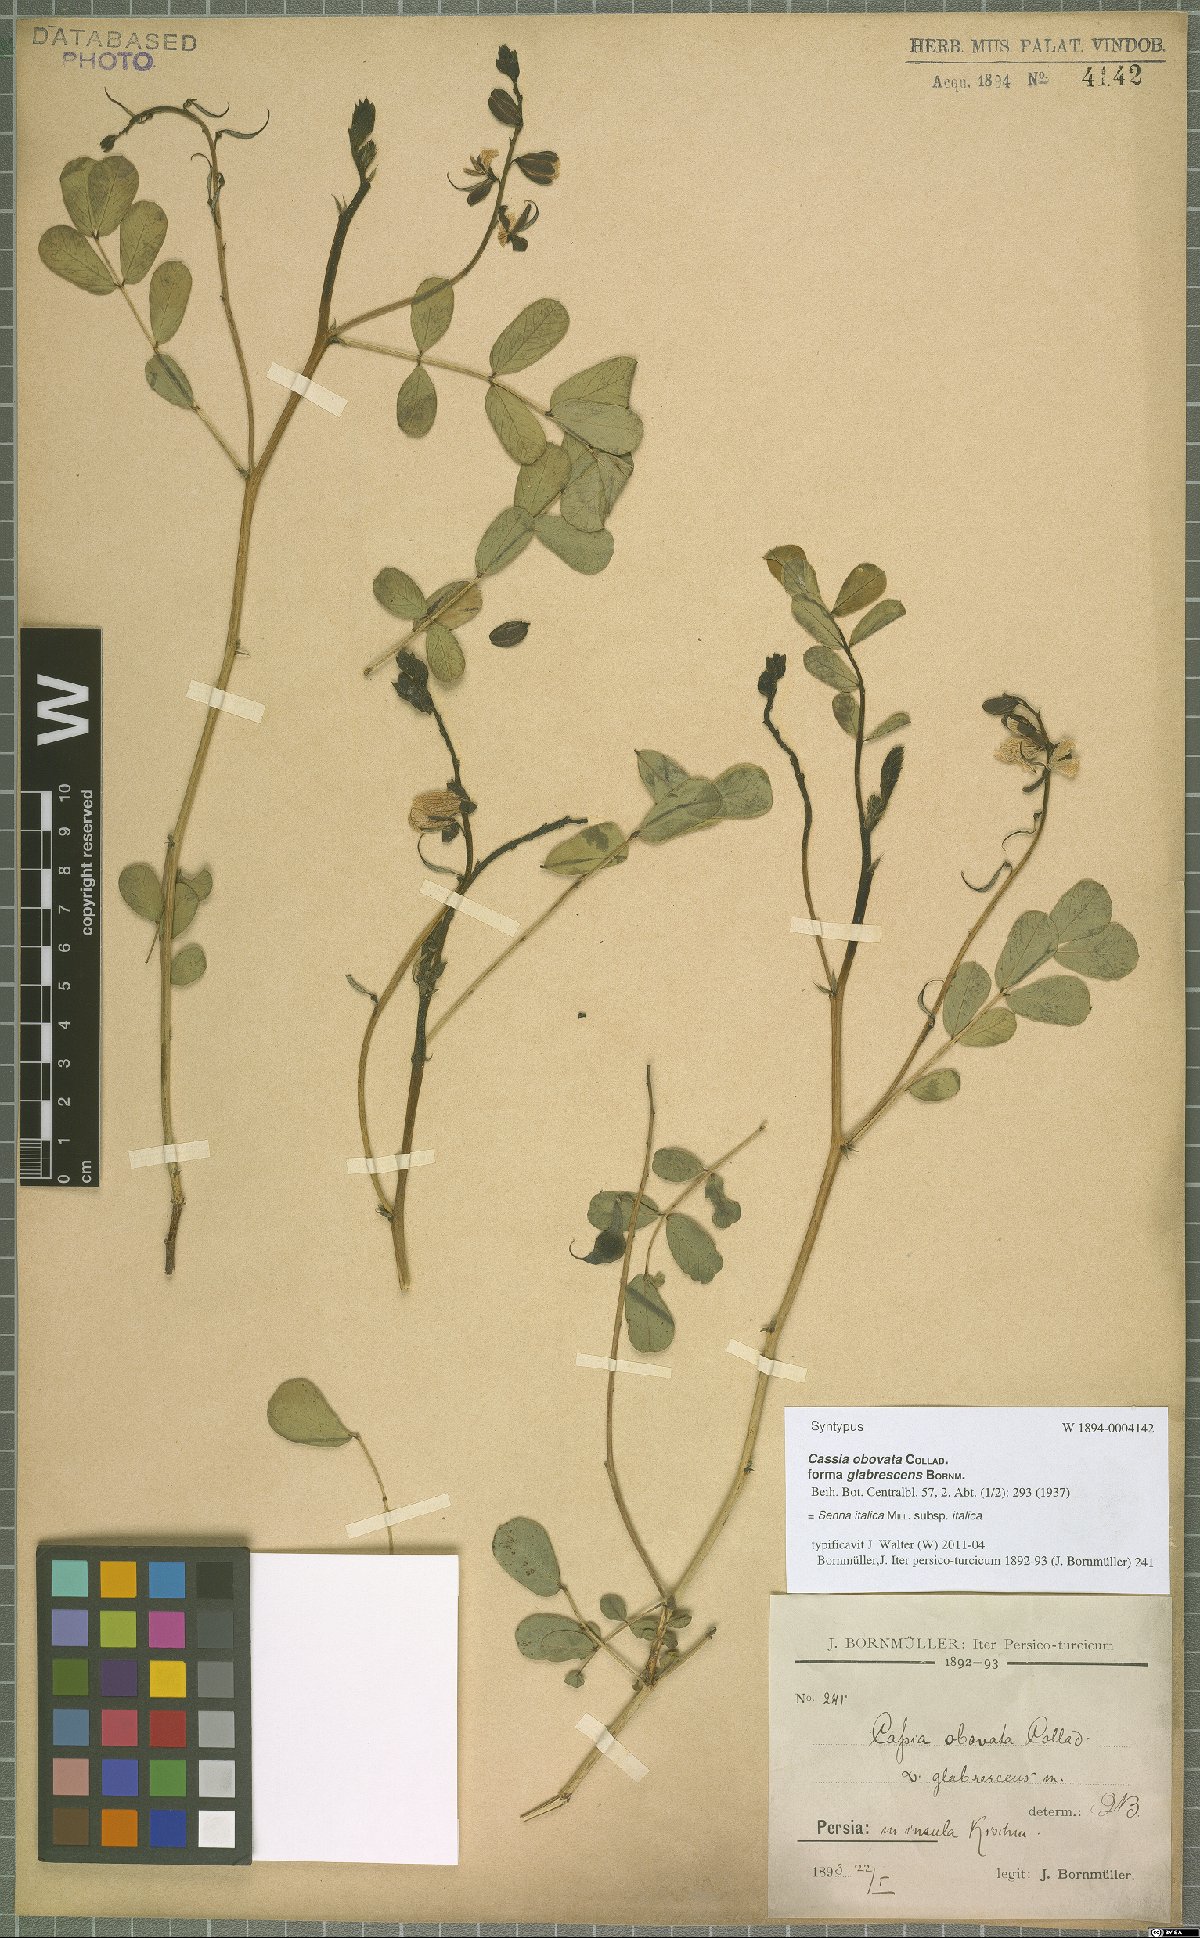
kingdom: Plantae
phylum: Tracheophyta
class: Magnoliopsida
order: Fabales
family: Fabaceae
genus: Senna
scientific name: Senna italica
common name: Port royal senna
